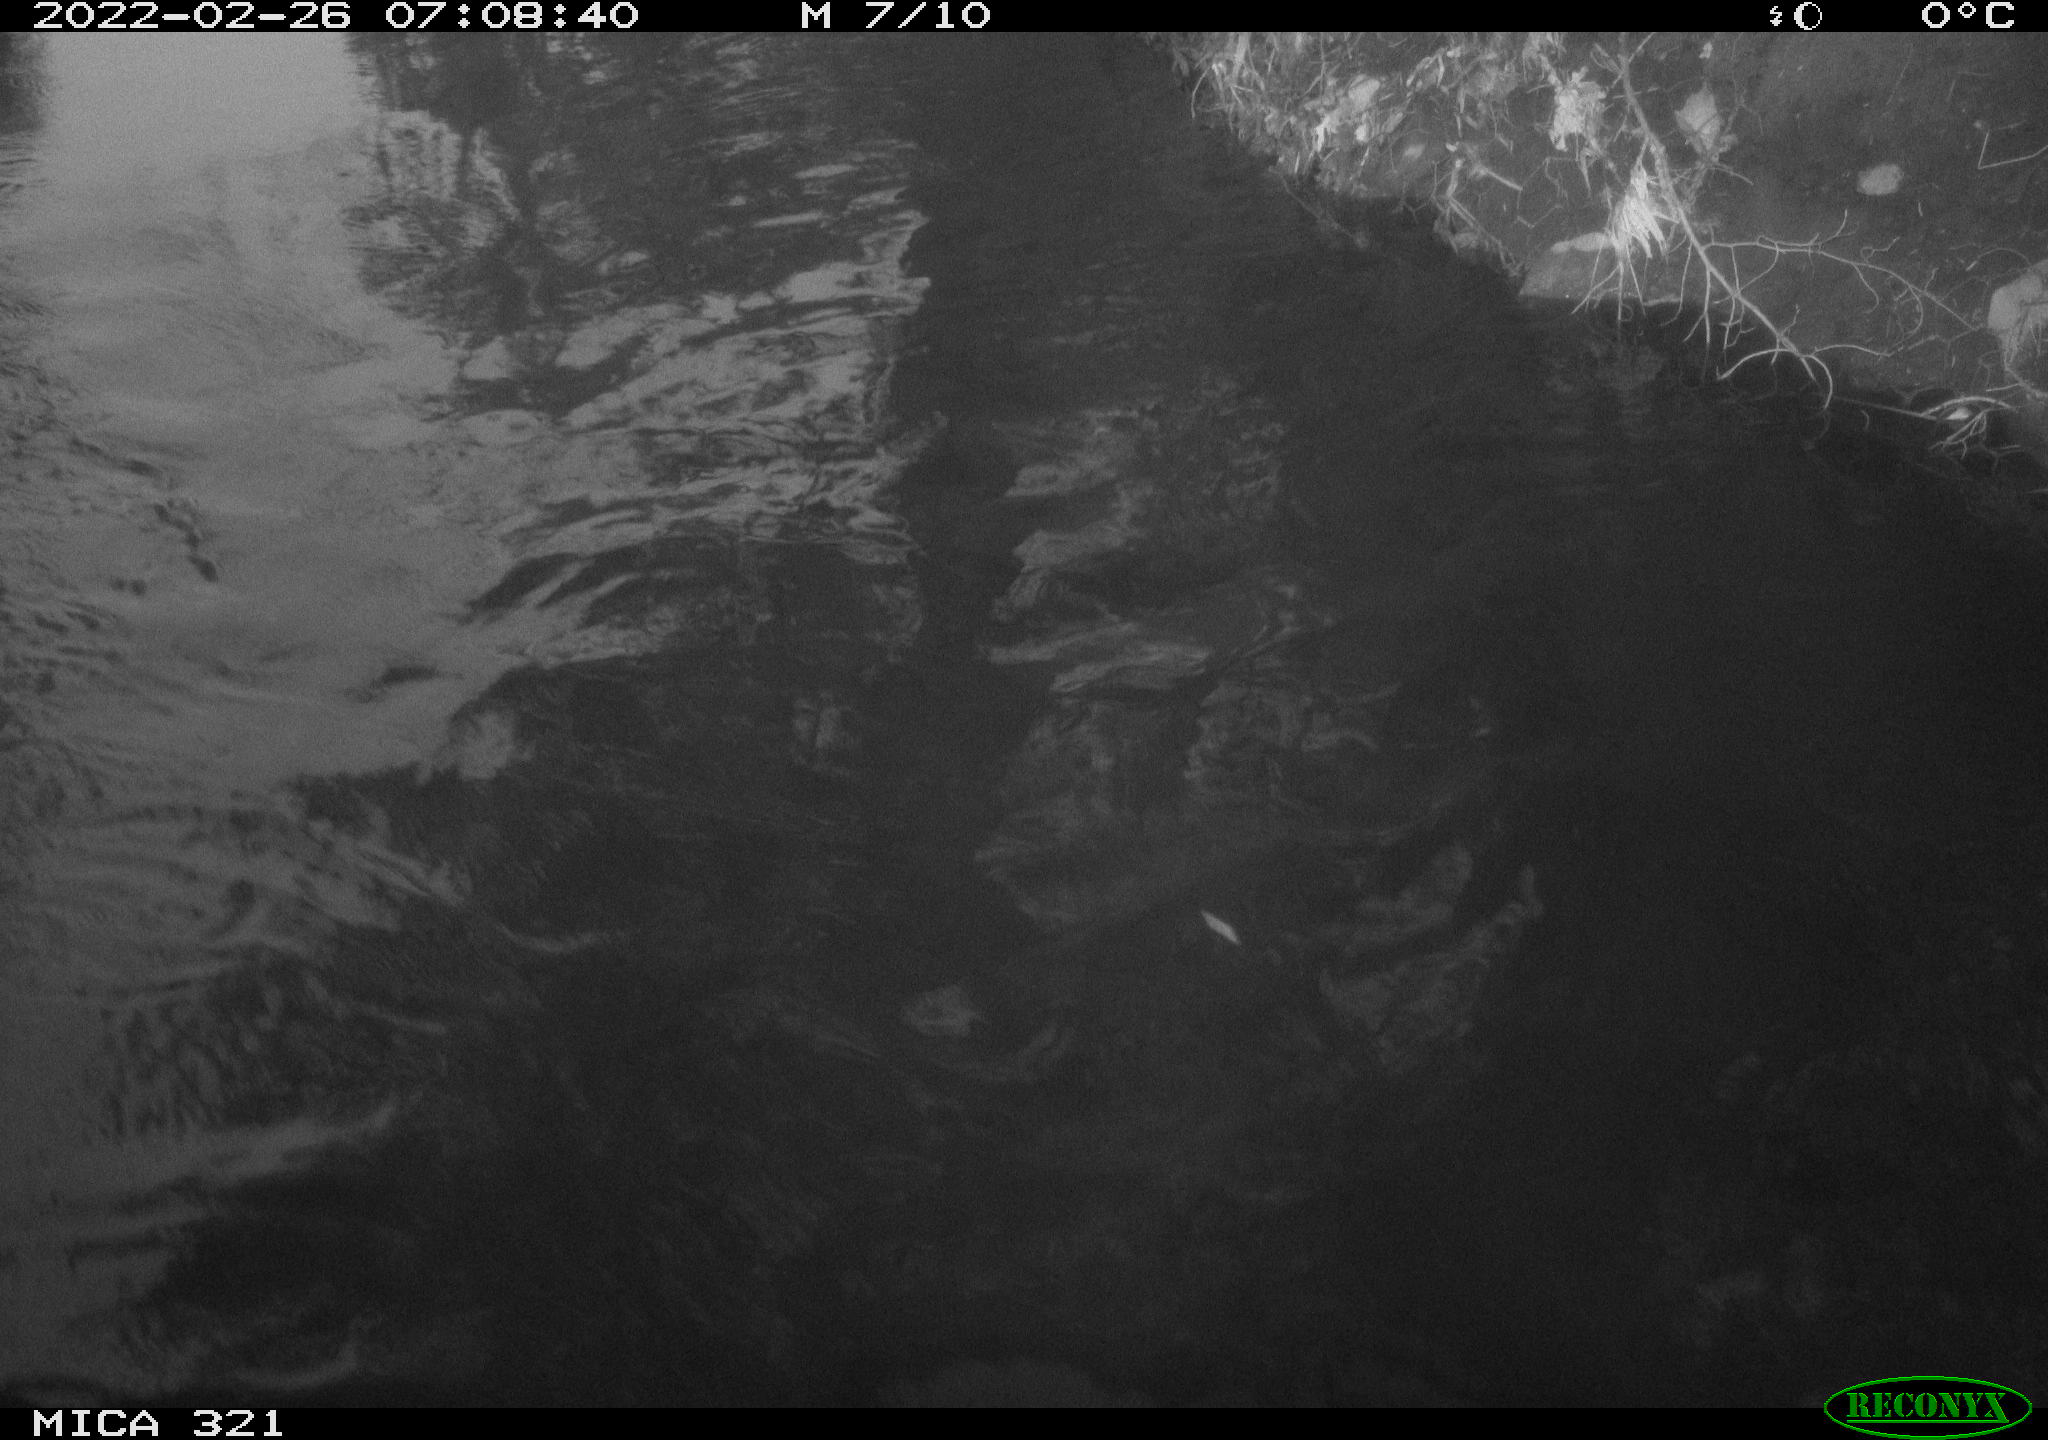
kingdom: Animalia
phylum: Chordata
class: Aves
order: Suliformes
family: Phalacrocoracidae
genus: Phalacrocorax
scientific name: Phalacrocorax carbo
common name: Great cormorant
